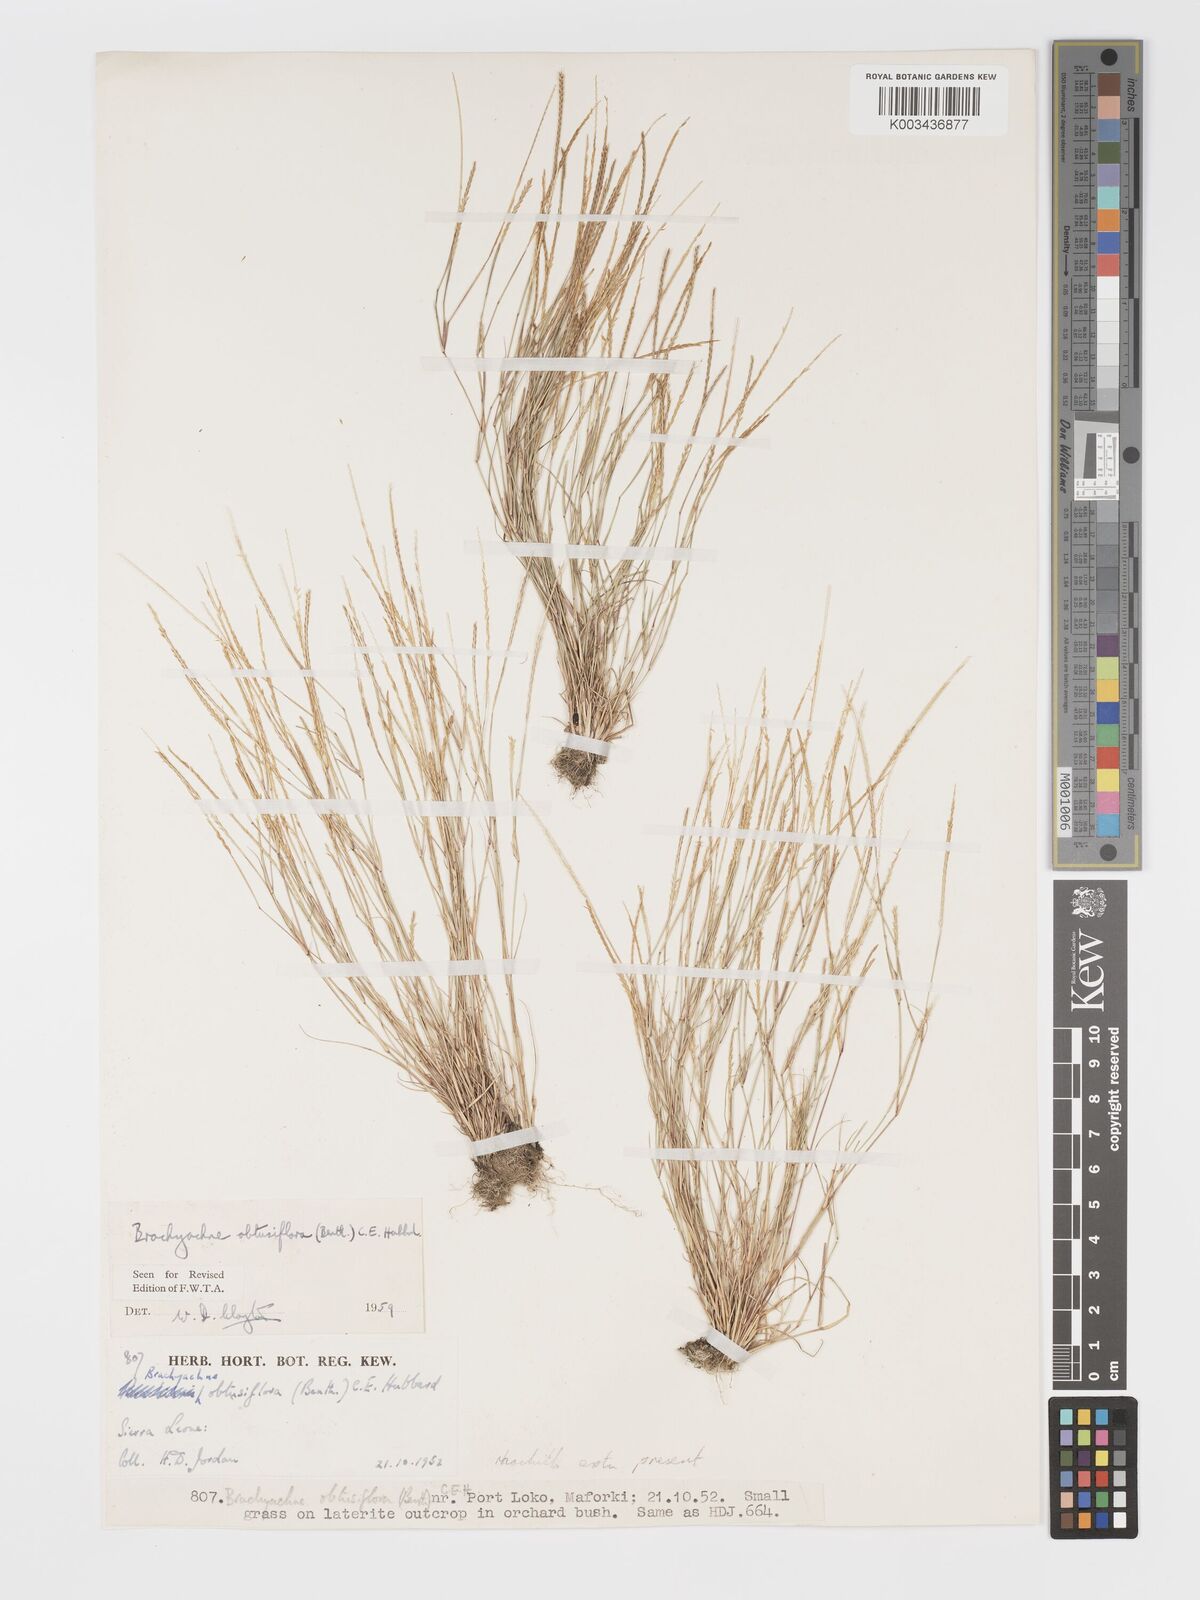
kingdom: Plantae
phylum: Tracheophyta
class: Liliopsida
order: Poales
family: Poaceae
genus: Micrachne
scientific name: Micrachne obtusiflora
